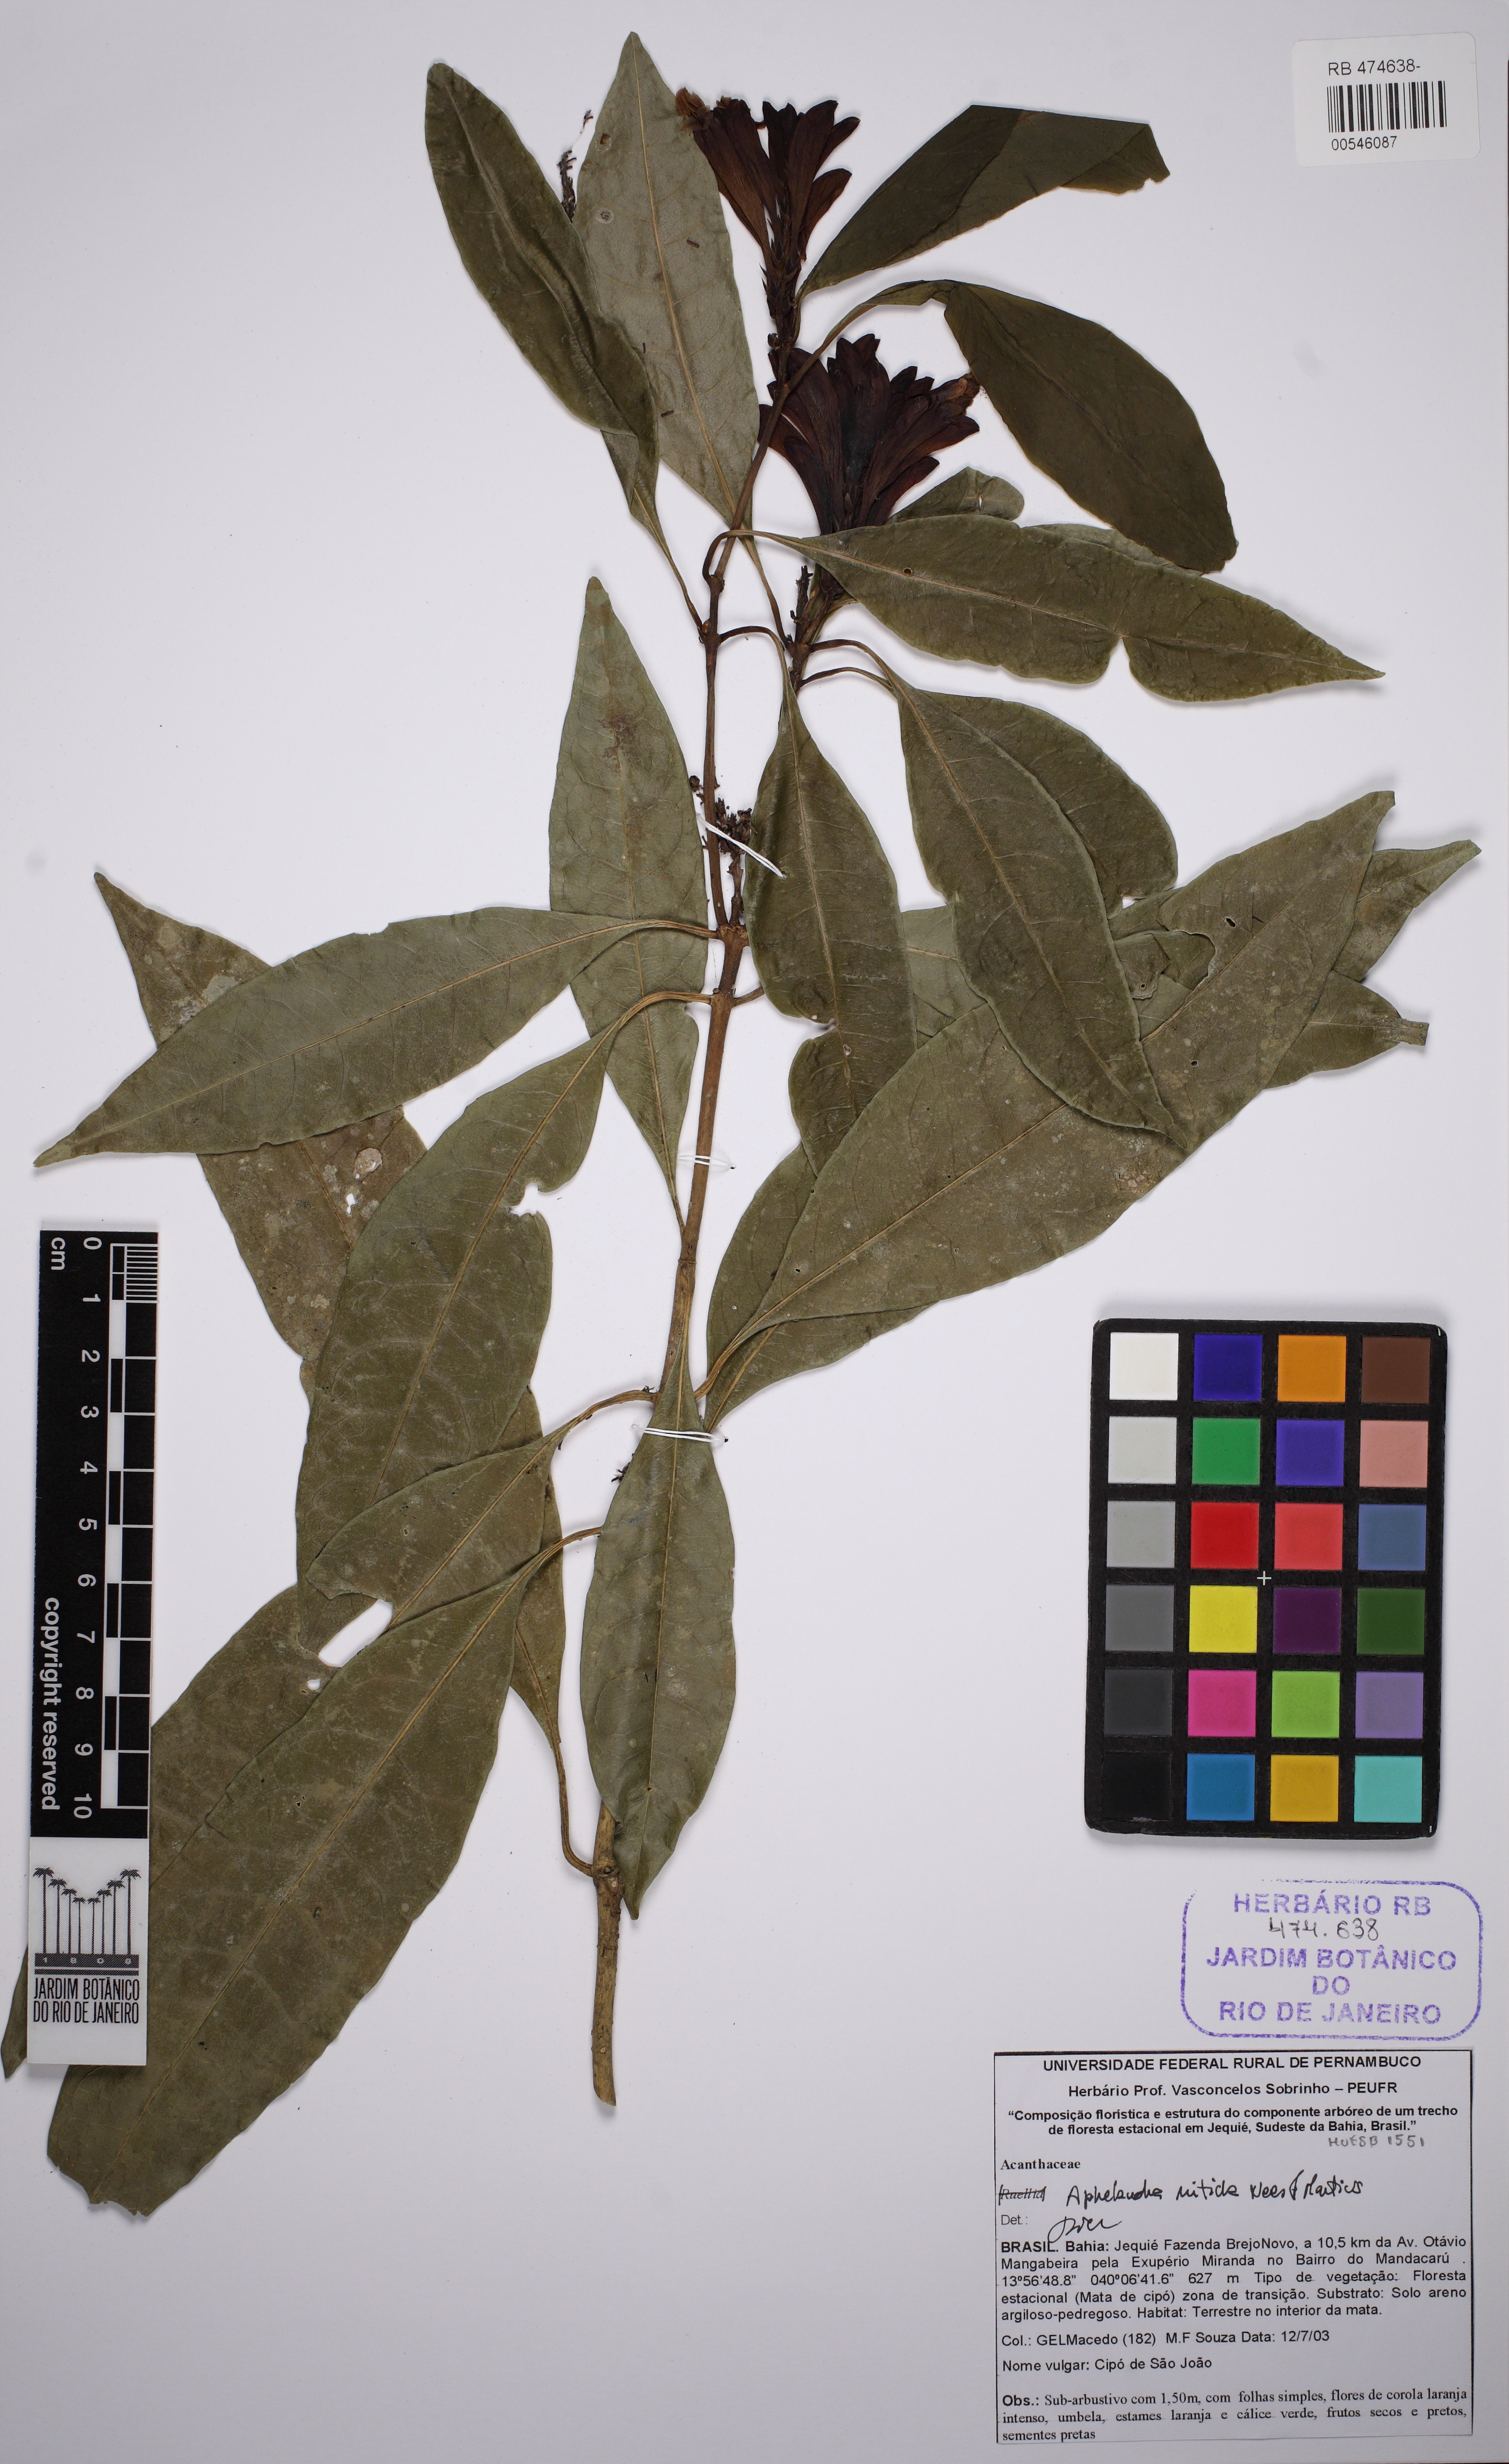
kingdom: Plantae
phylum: Tracheophyta
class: Magnoliopsida
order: Lamiales
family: Acanthaceae
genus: Aphelandra
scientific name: Aphelandra nitida
